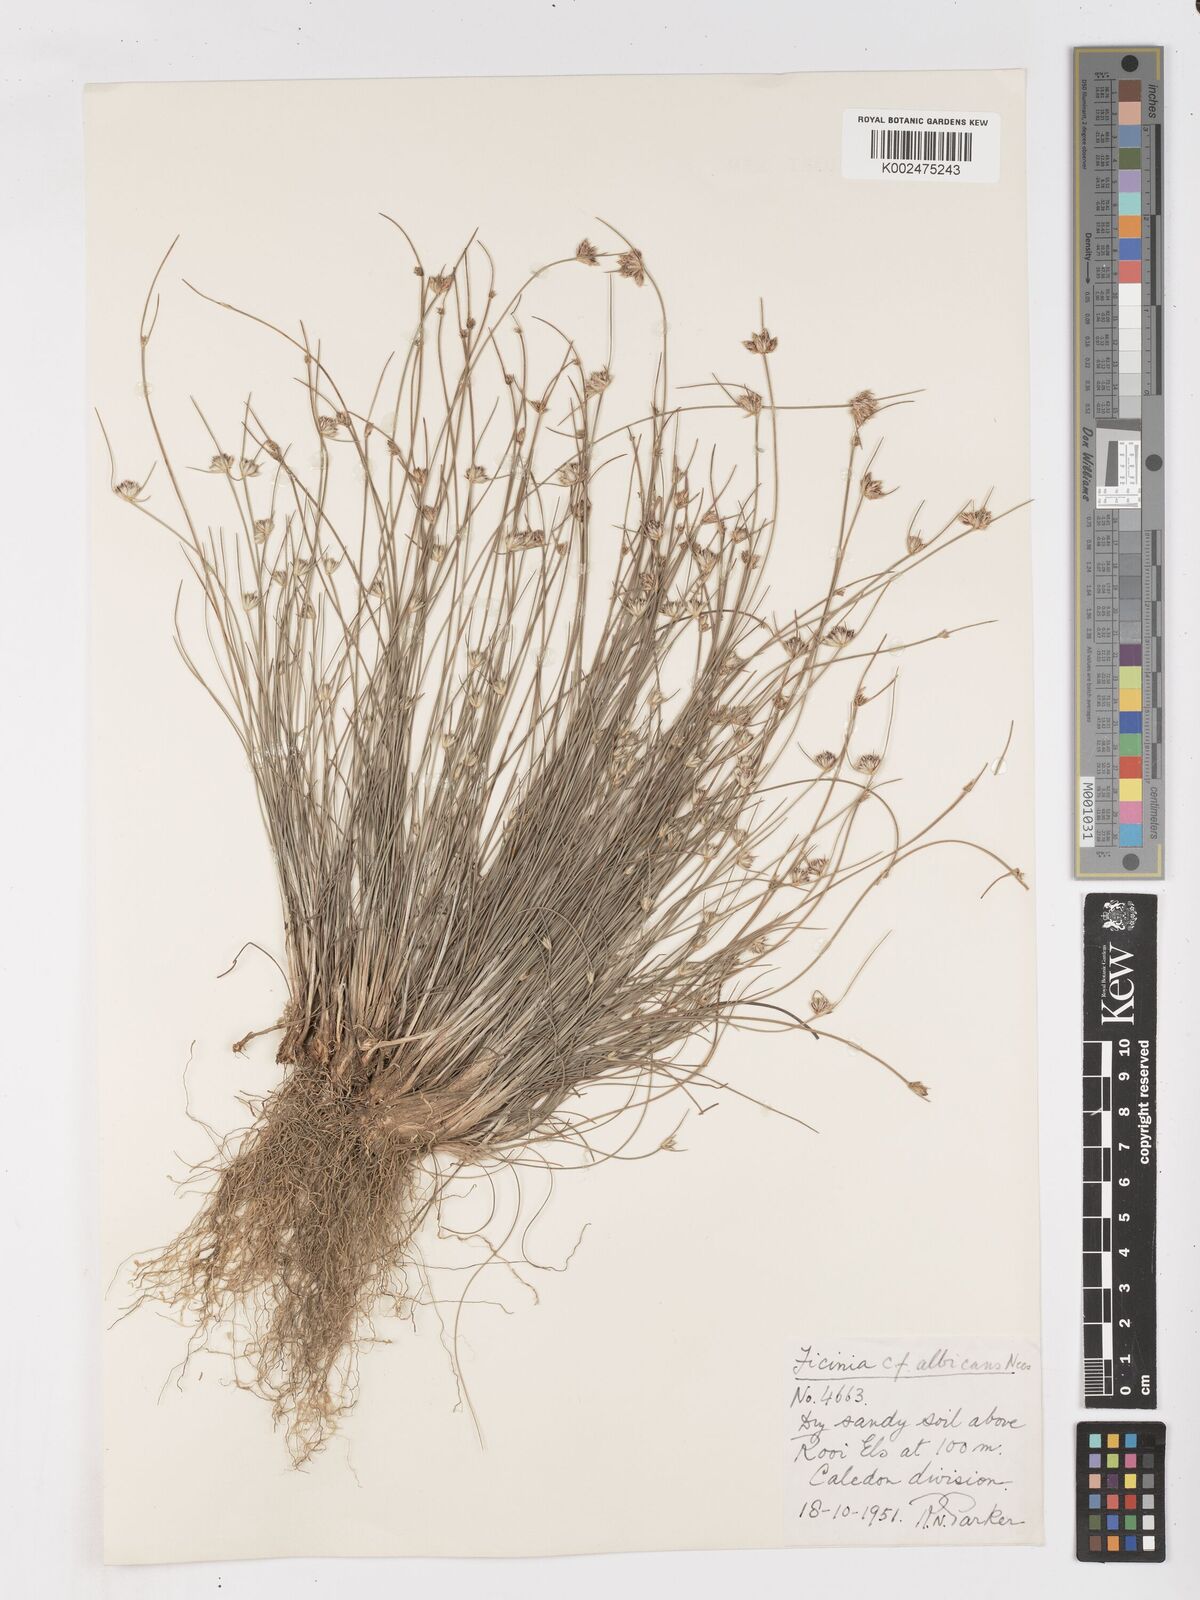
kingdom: Plantae
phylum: Tracheophyta
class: Liliopsida
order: Poales
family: Cyperaceae
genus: Ficinia
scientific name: Ficinia albicans
